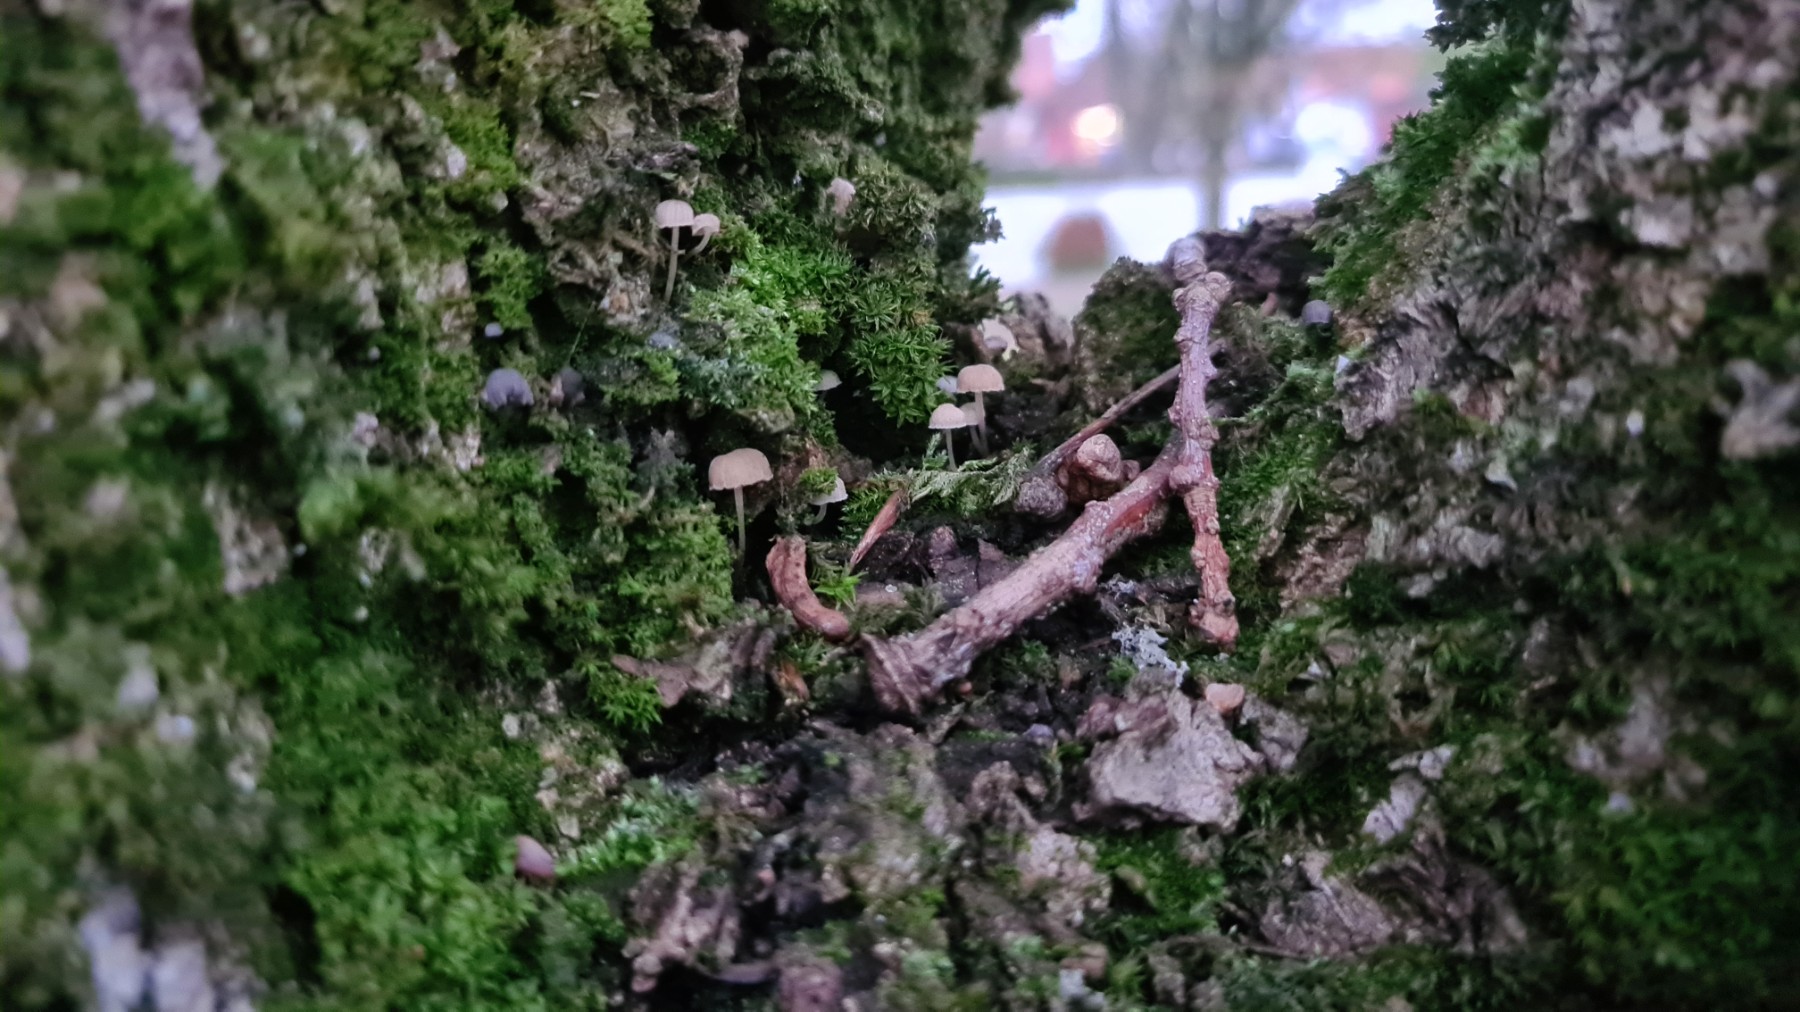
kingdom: Fungi
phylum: Basidiomycota
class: Agaricomycetes
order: Agaricales
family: Mycenaceae
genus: Mycena
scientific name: Mycena
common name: huesvamp
